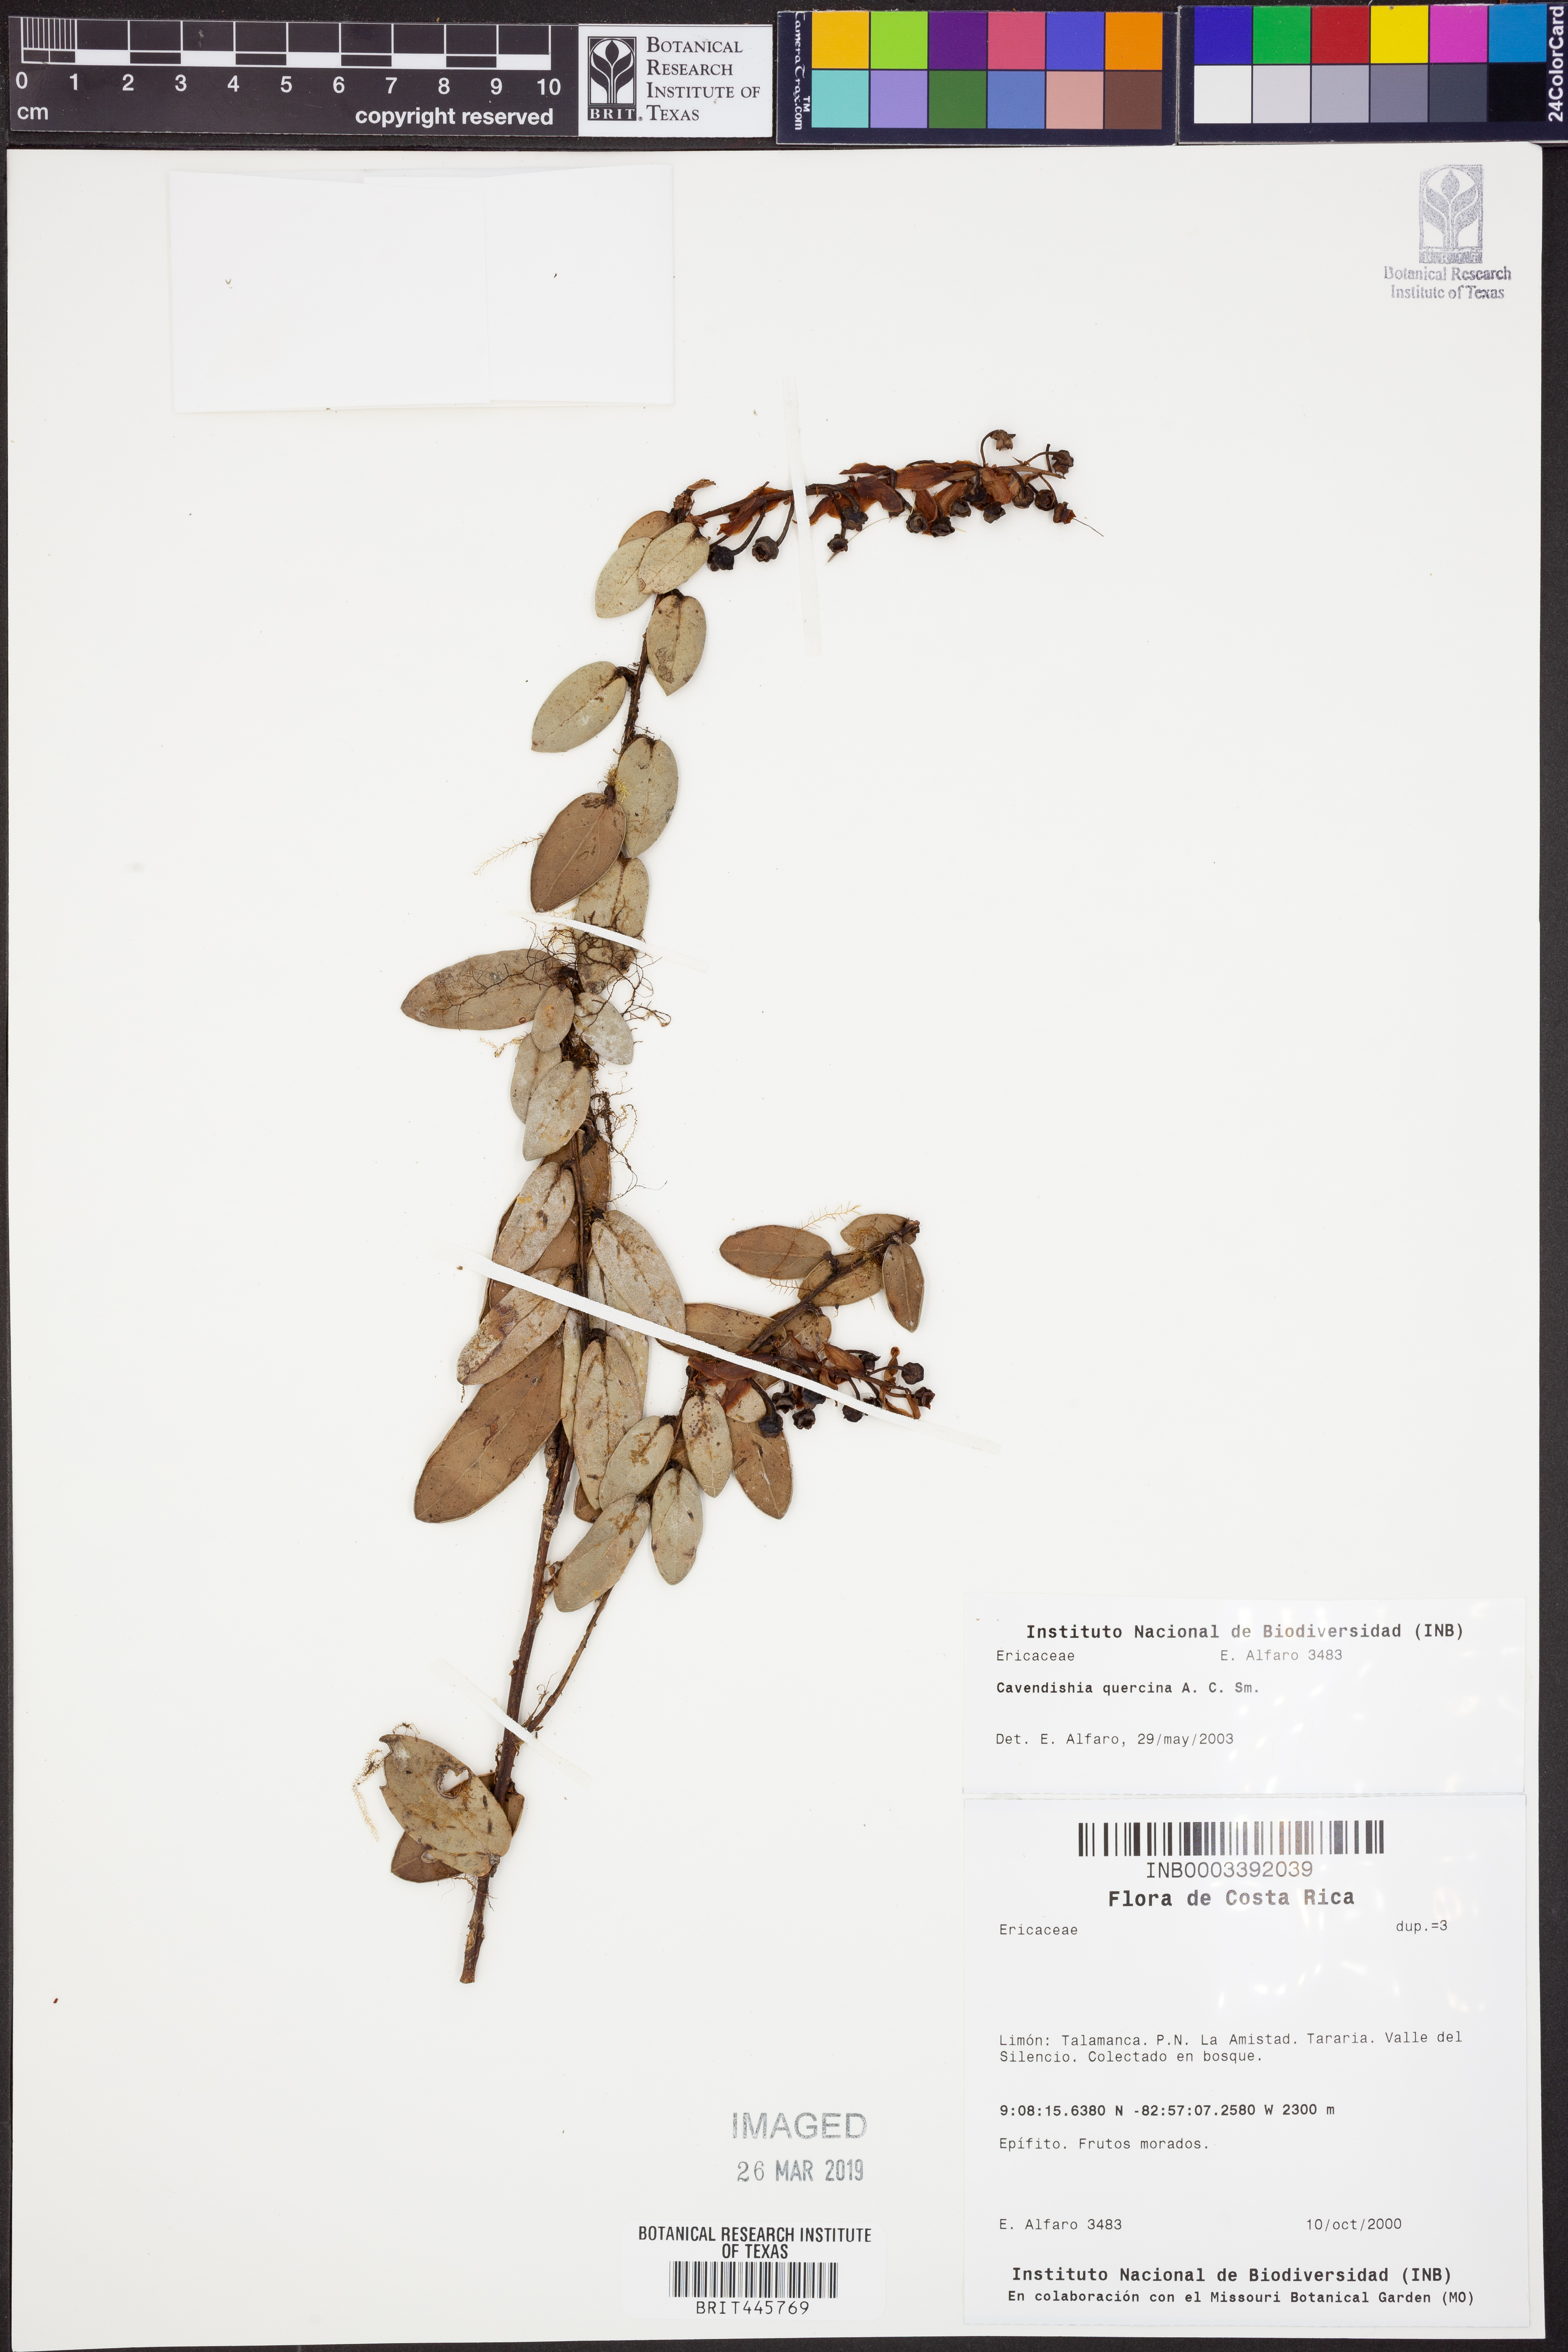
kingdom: Plantae
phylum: Tracheophyta
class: Magnoliopsida
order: Ericales
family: Ericaceae
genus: Cavendishia
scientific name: Cavendishia quercina
